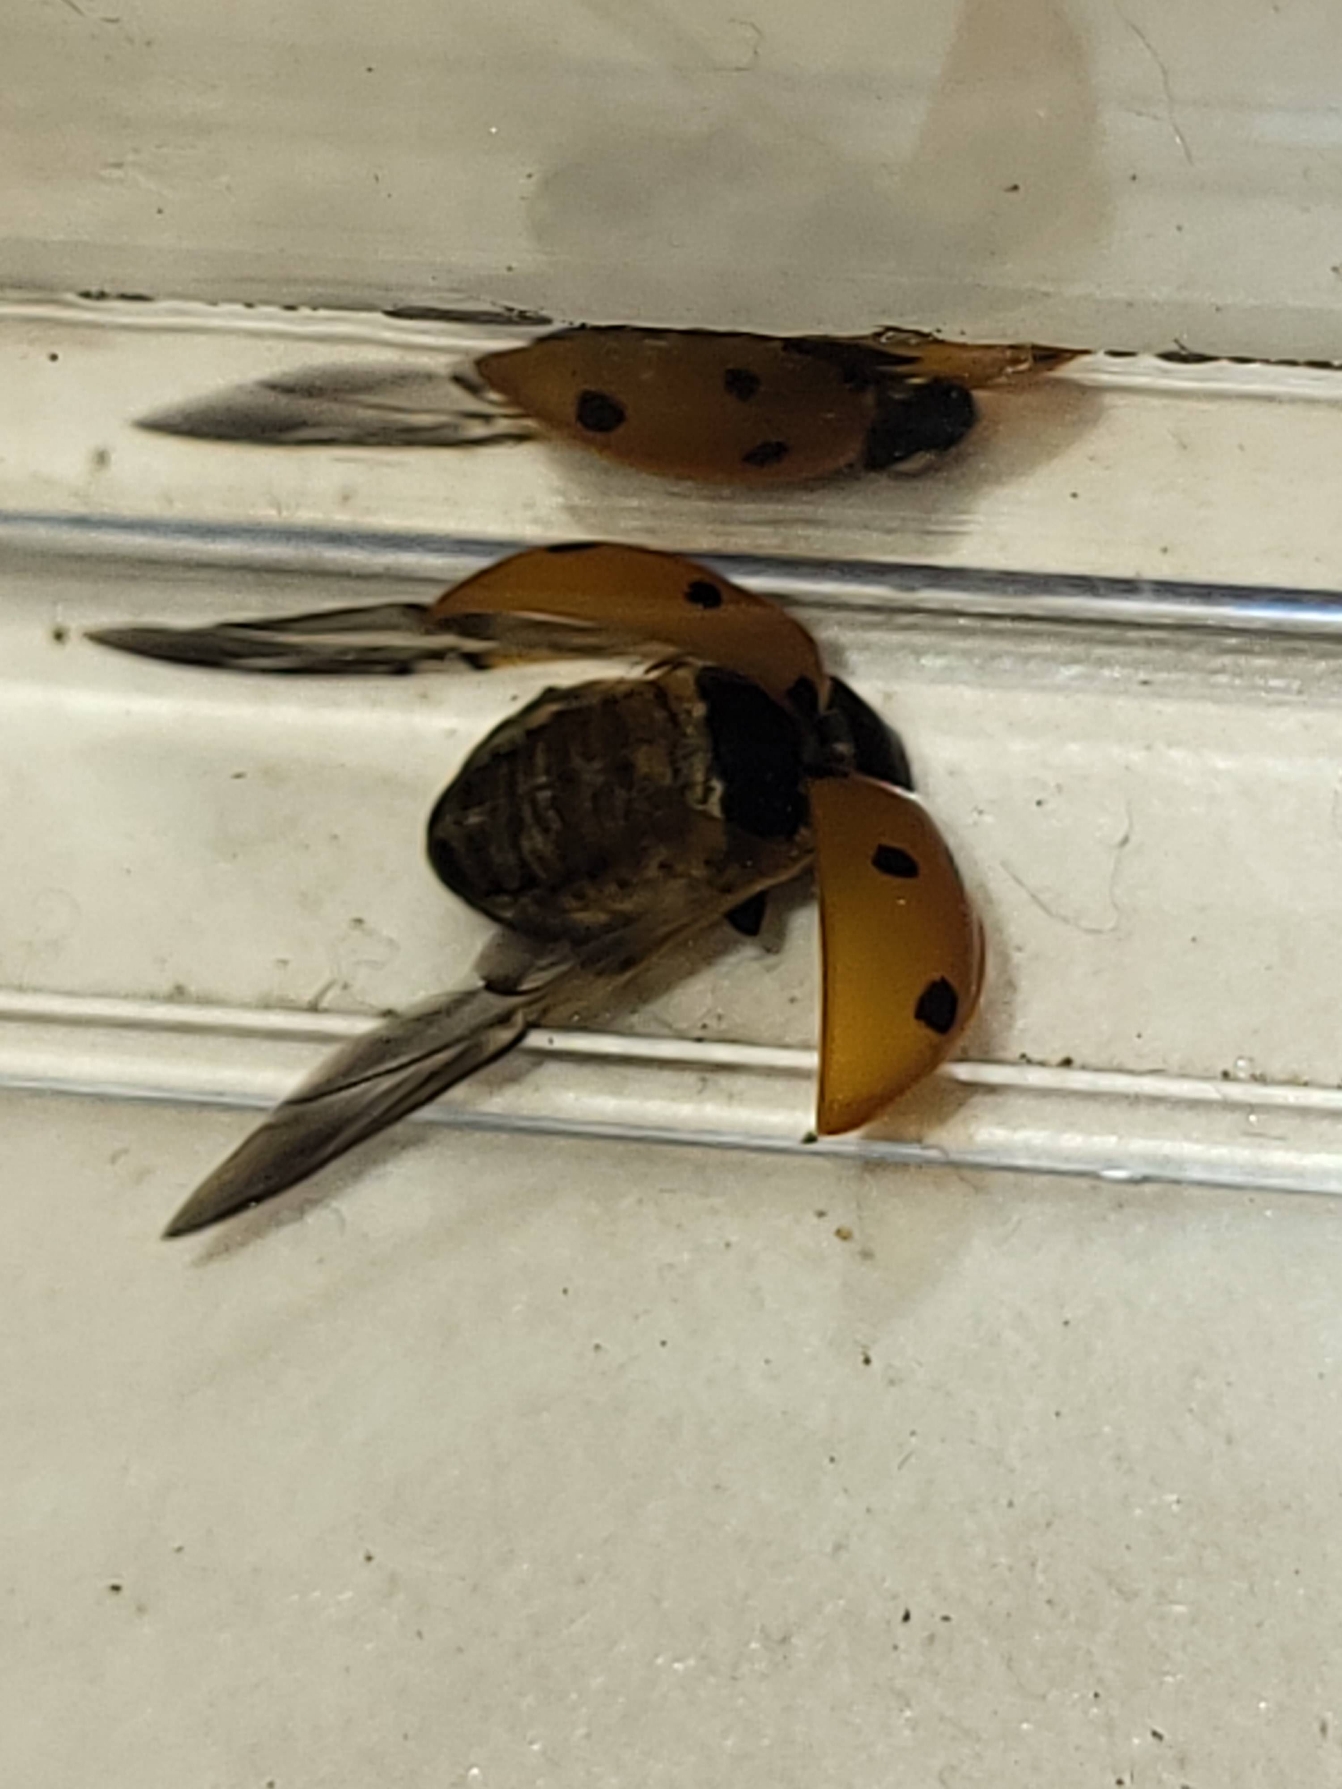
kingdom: Animalia
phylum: Arthropoda
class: Insecta
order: Coleoptera
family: Coccinellidae
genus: Coccinella
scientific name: Coccinella septempunctata
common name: Syvplettet mariehøne
